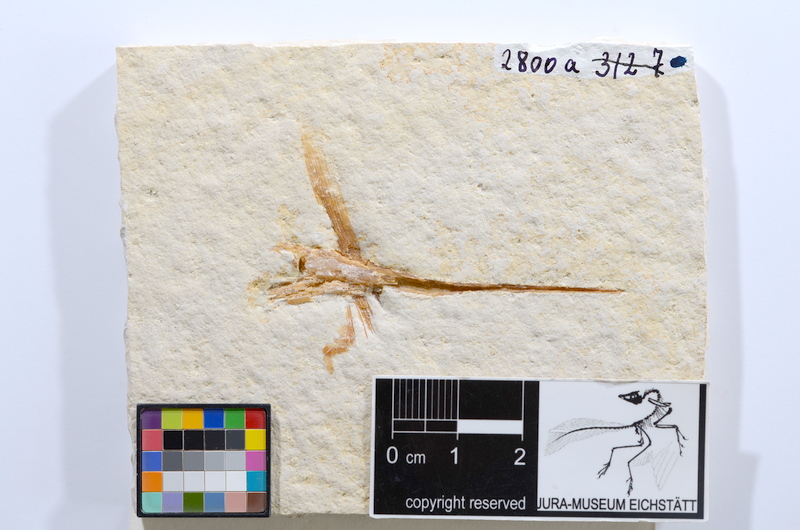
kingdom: Animalia
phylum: Chordata
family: Aspidorhynchidae
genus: Aspidorhynchus
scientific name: Aspidorhynchus
